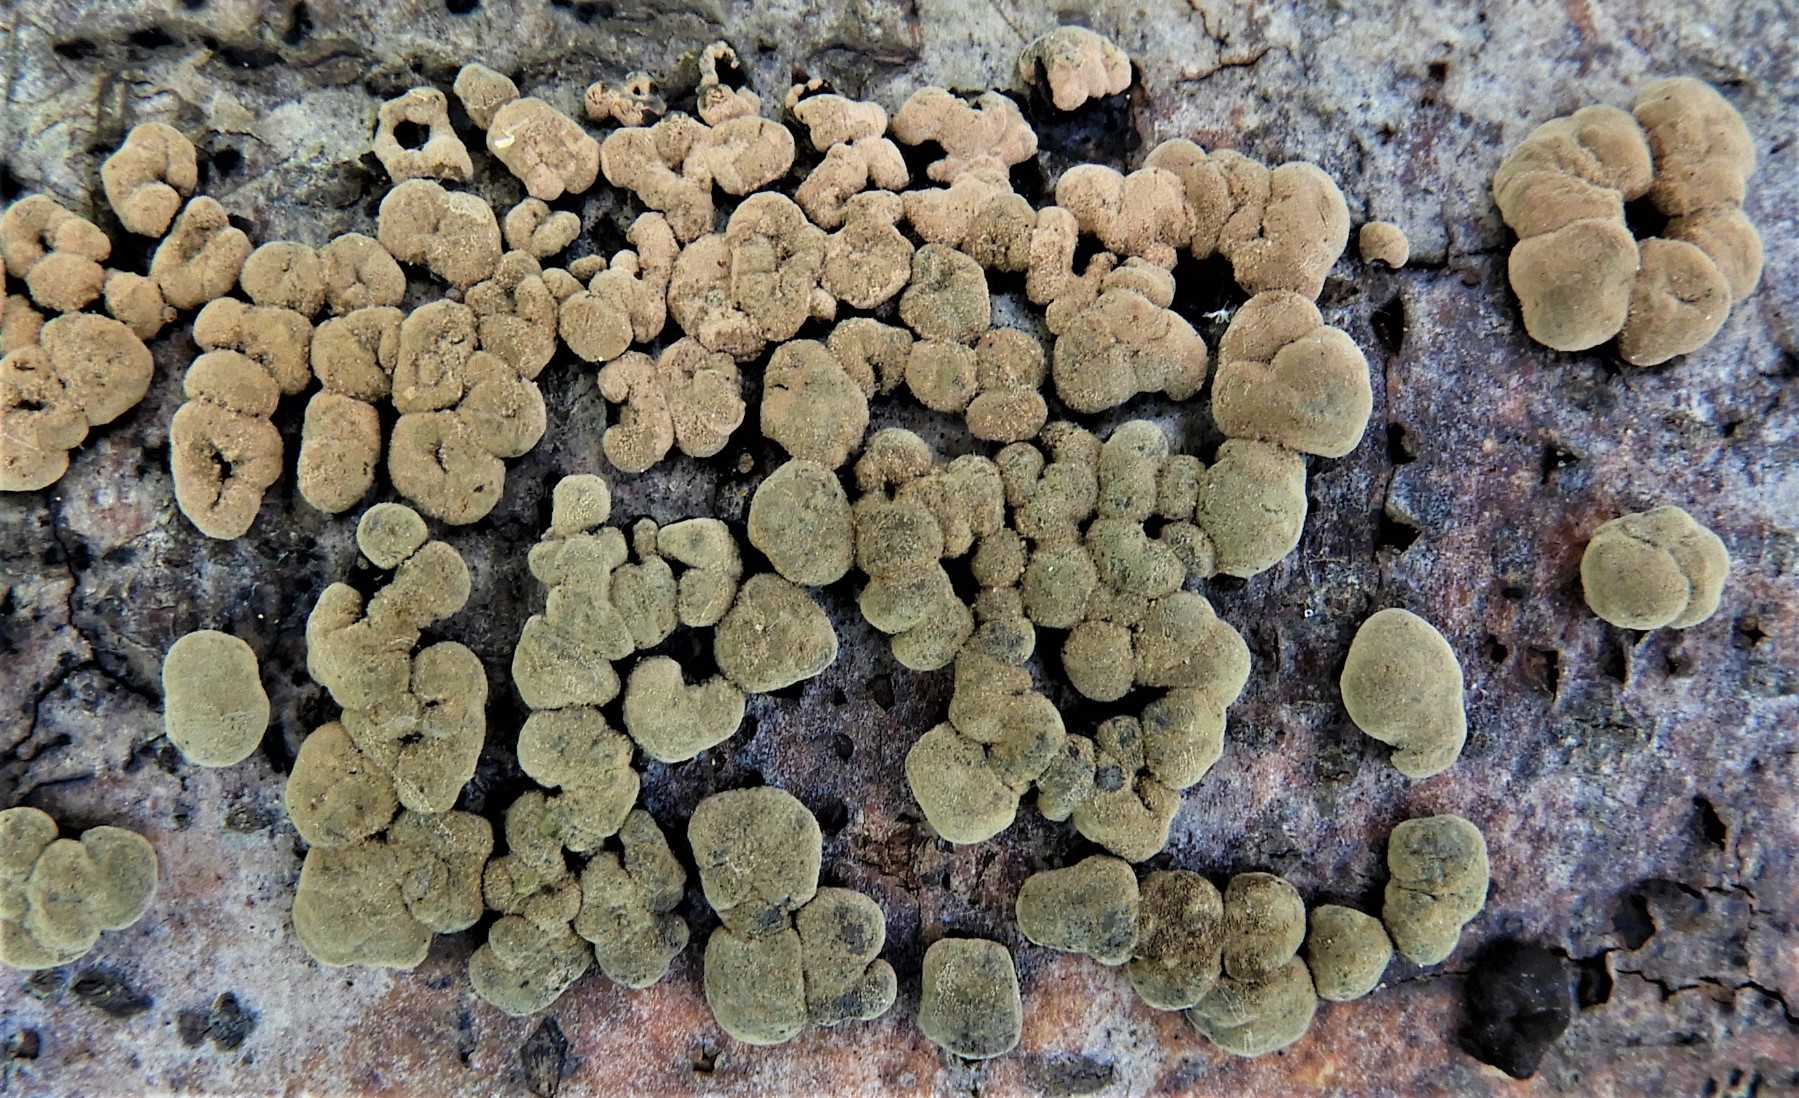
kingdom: Fungi
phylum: Ascomycota
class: Sordariomycetes
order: Xylariales
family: Hypoxylaceae
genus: Jackrogersella
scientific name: Jackrogersella cohaerens
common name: sammenflydende kulbær
